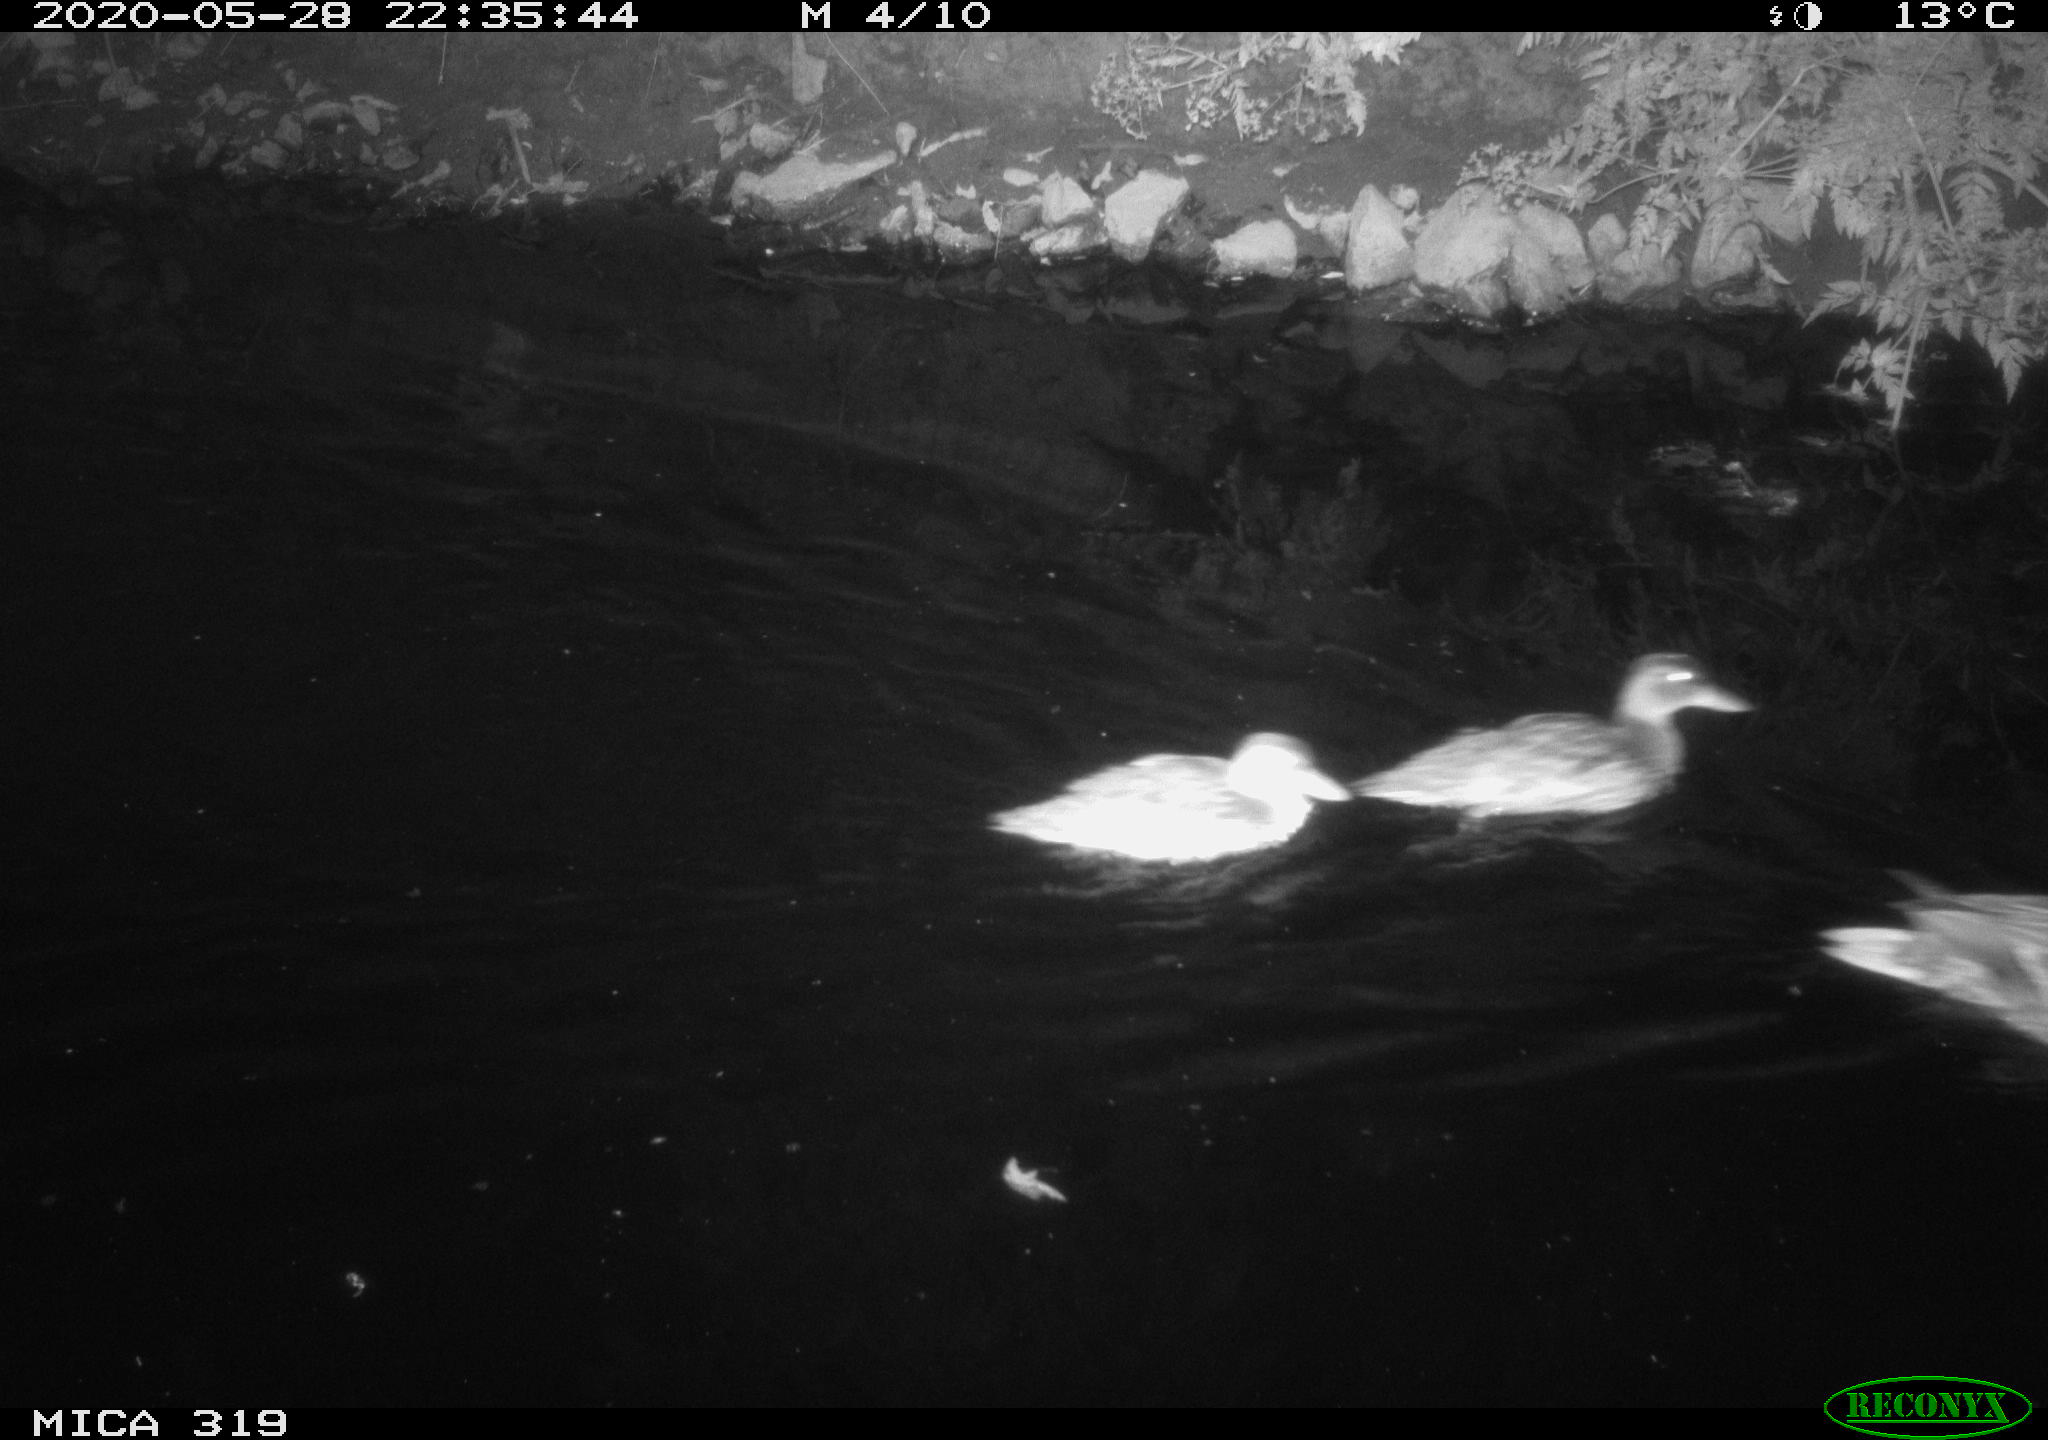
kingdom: Animalia
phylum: Chordata
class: Aves
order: Anseriformes
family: Anatidae
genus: Anas
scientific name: Anas platyrhynchos
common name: Mallard
